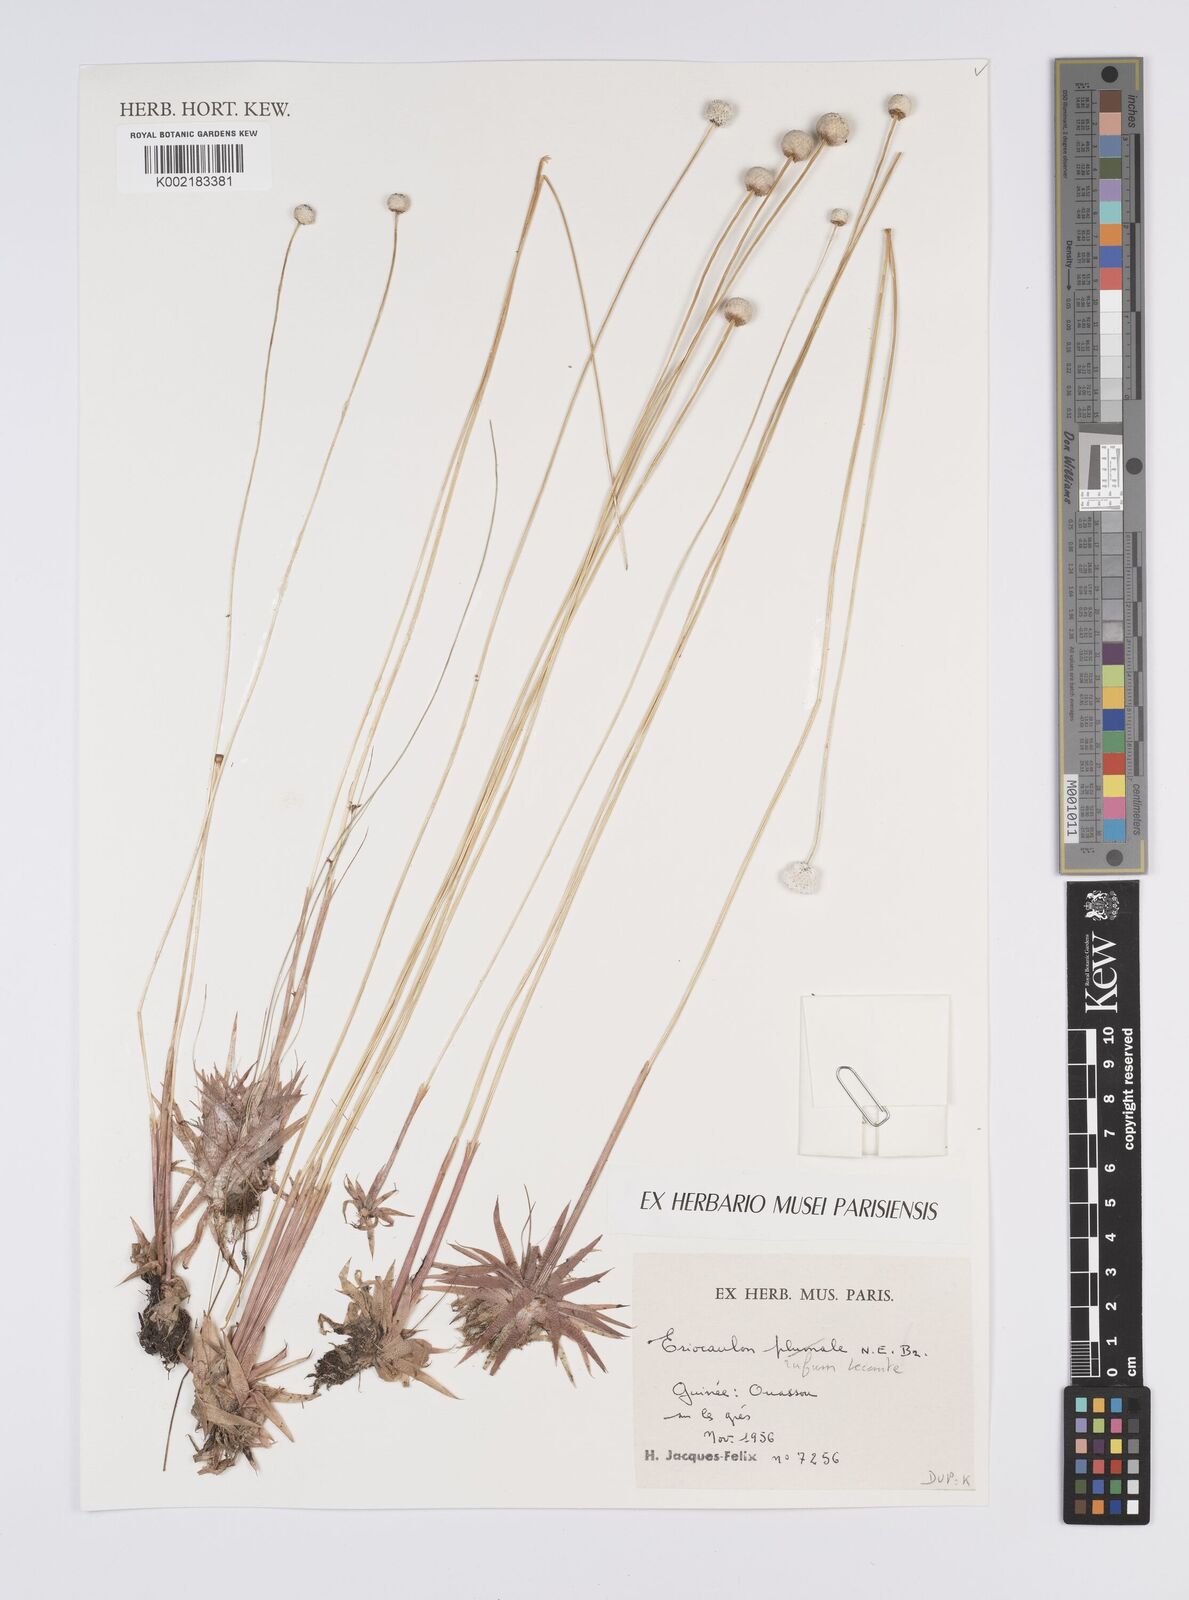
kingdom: Plantae
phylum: Tracheophyta
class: Liliopsida
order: Poales
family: Eriocaulaceae
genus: Eriocaulon
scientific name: Eriocaulon rufum
